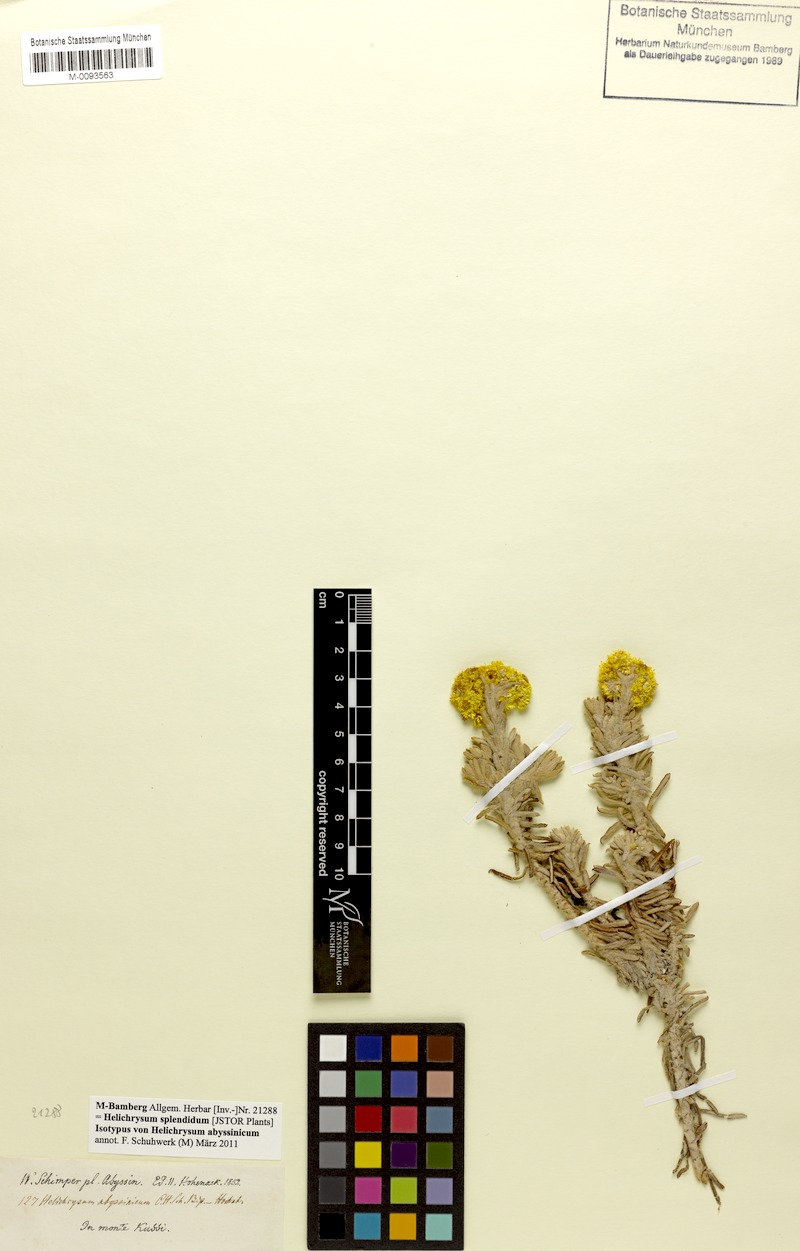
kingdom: Plantae
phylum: Tracheophyta
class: Magnoliopsida
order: Asterales
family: Asteraceae
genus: Helichrysum
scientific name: Helichrysum splendidum
